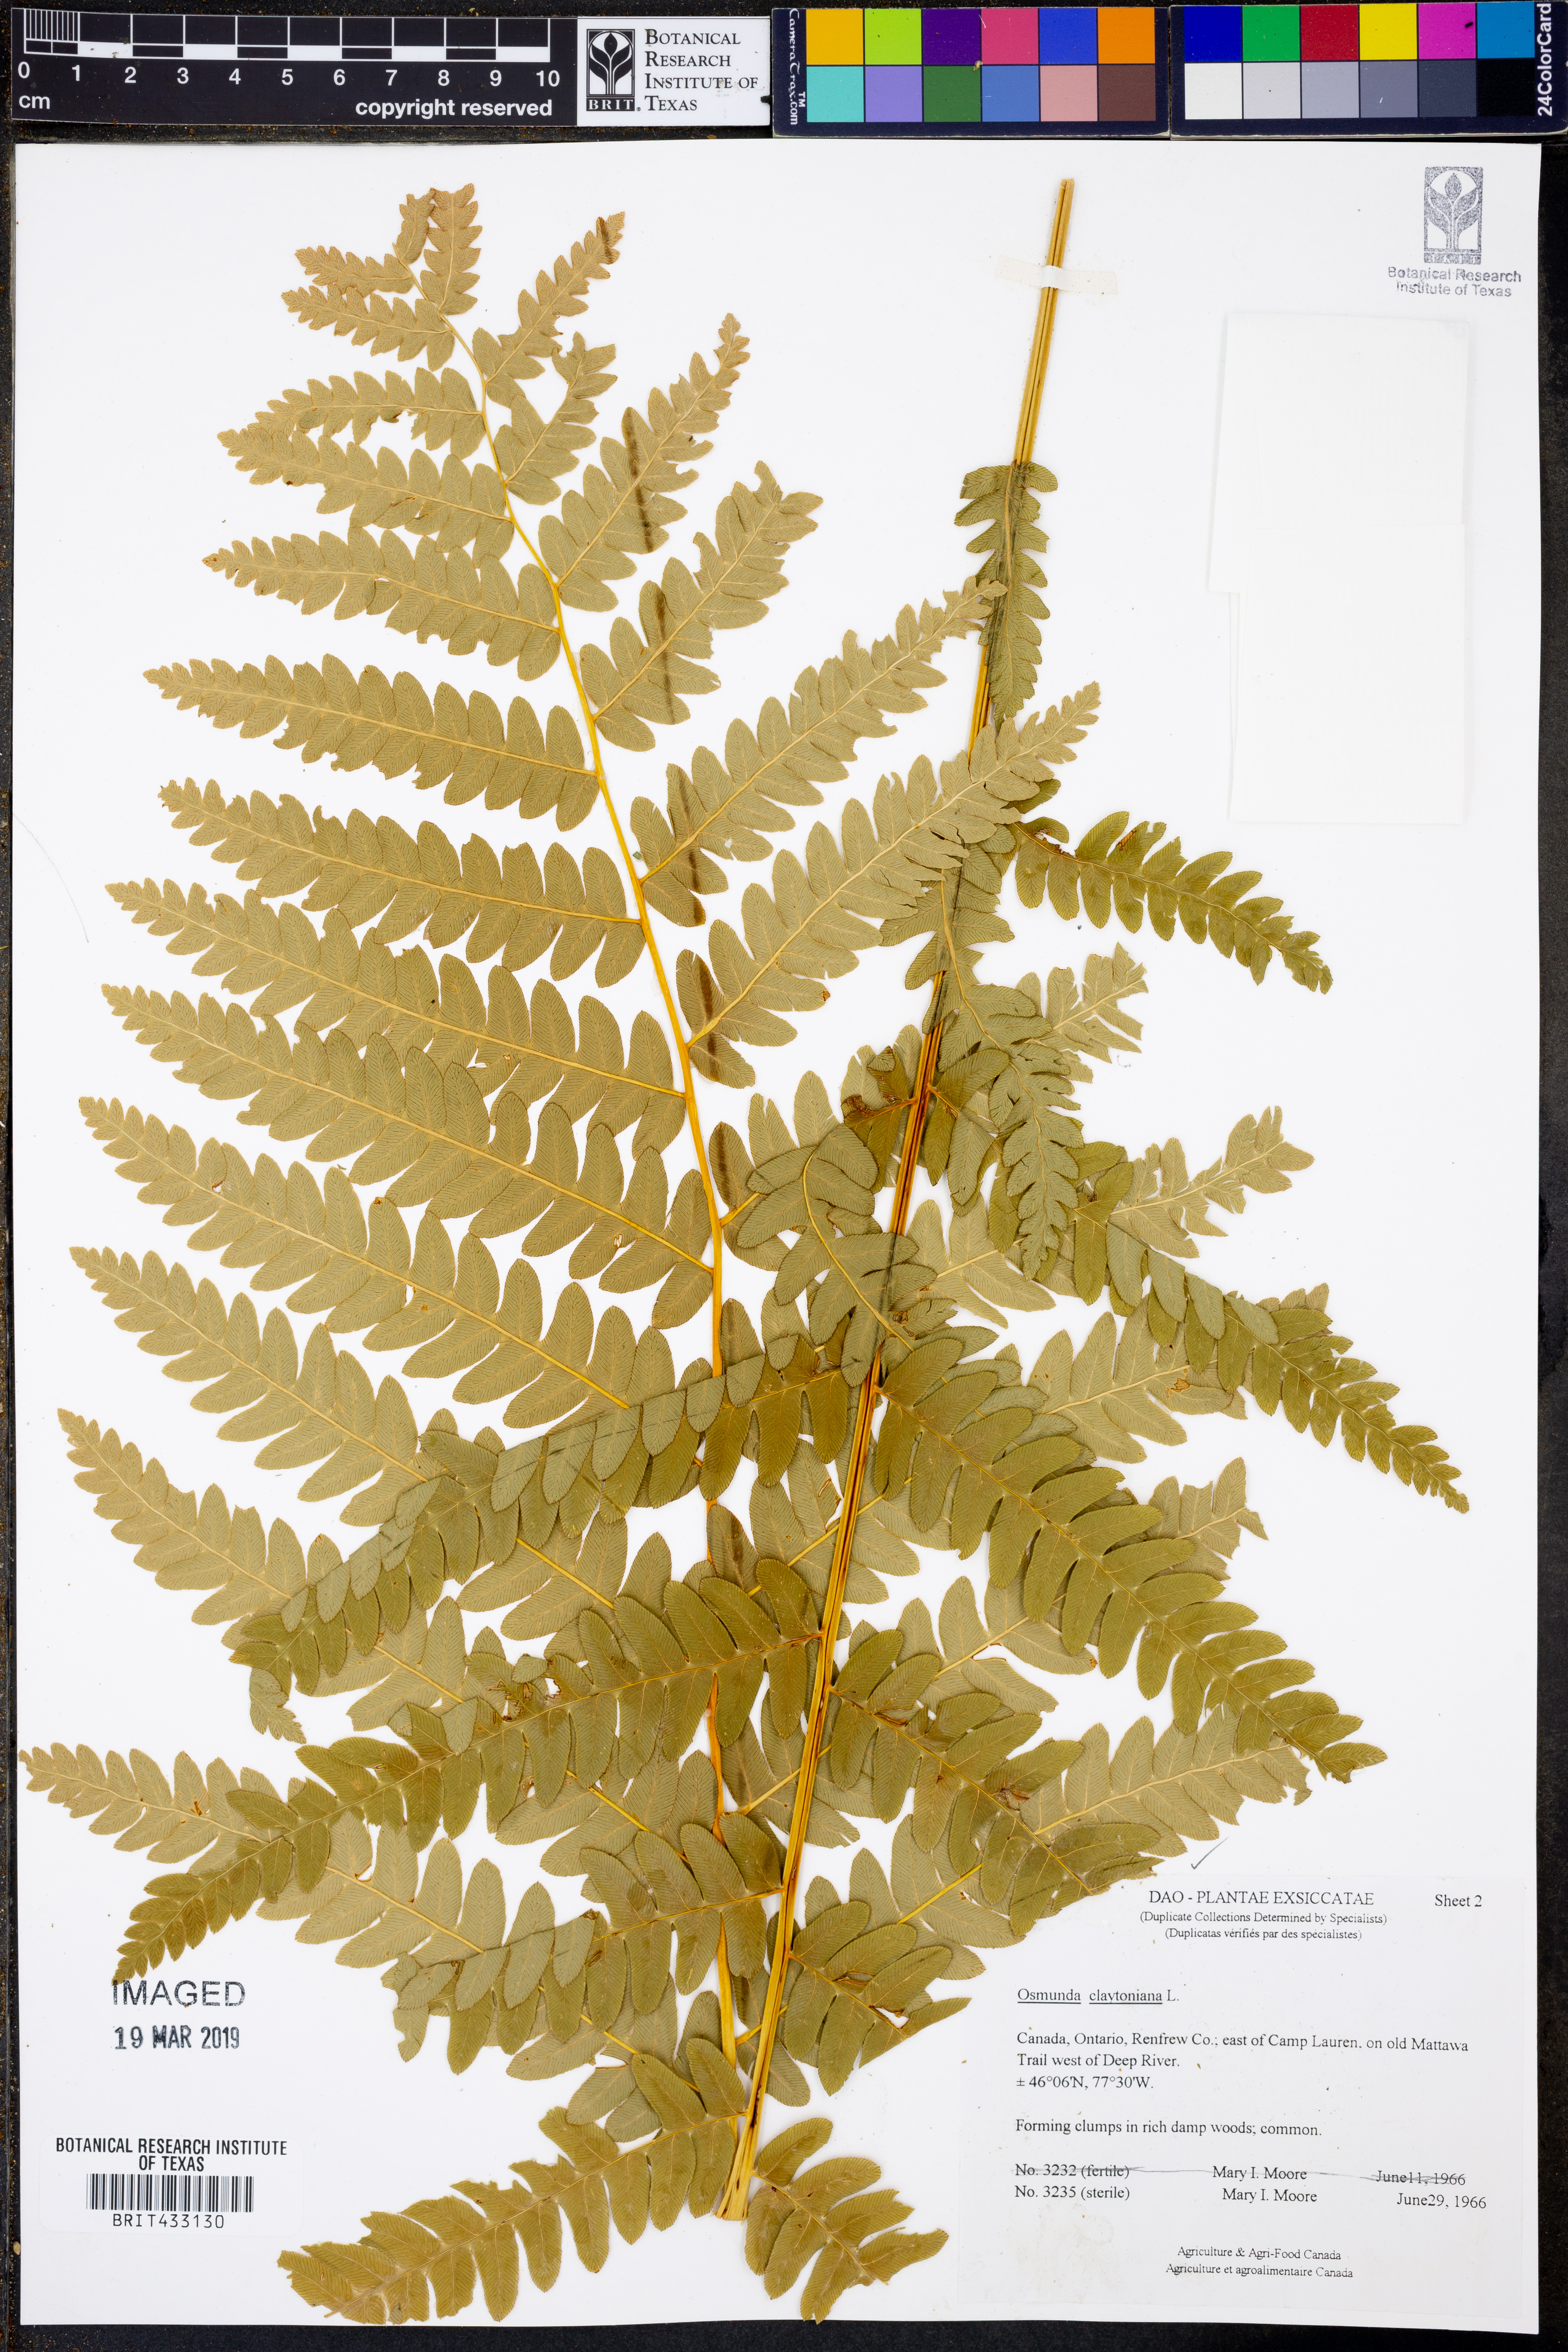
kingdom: Plantae
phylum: Tracheophyta
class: Polypodiopsida
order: Osmundales
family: Osmundaceae
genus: Claytosmunda
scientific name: Claytosmunda claytoniana
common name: Clayton's fern
